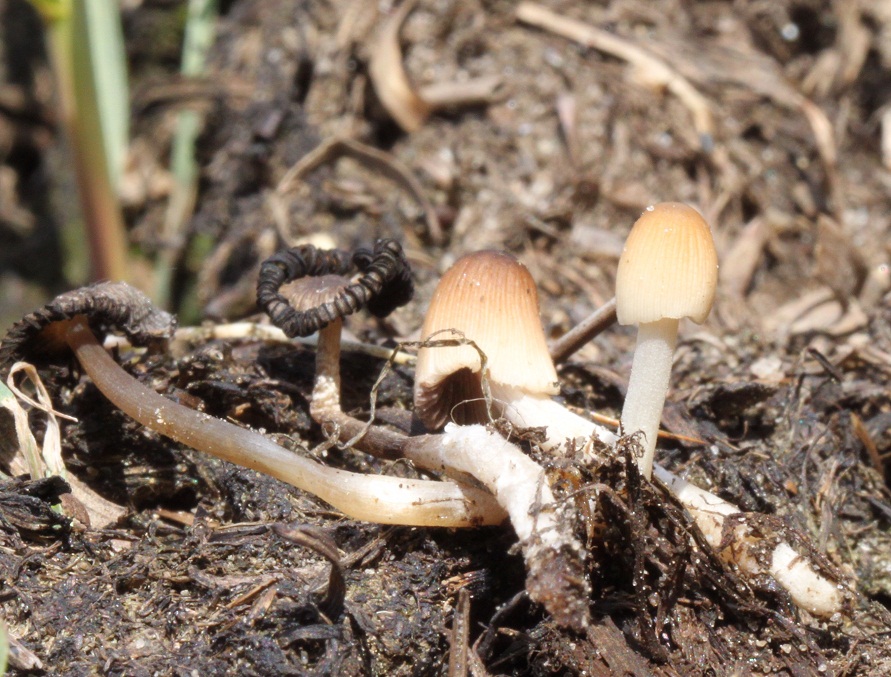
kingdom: Fungi
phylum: Basidiomycota
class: Agaricomycetes
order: Agaricales
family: Psathyrellaceae
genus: Tulosesus
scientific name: Tulosesus congregatus
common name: klynge-blækhat
